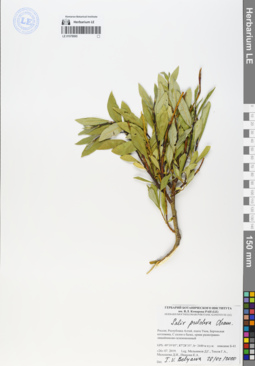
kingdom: Plantae
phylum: Tracheophyta
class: Magnoliopsida
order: Malpighiales
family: Salicaceae
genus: Salix
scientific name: Salix pulchra
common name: Diamond-leaved willow
